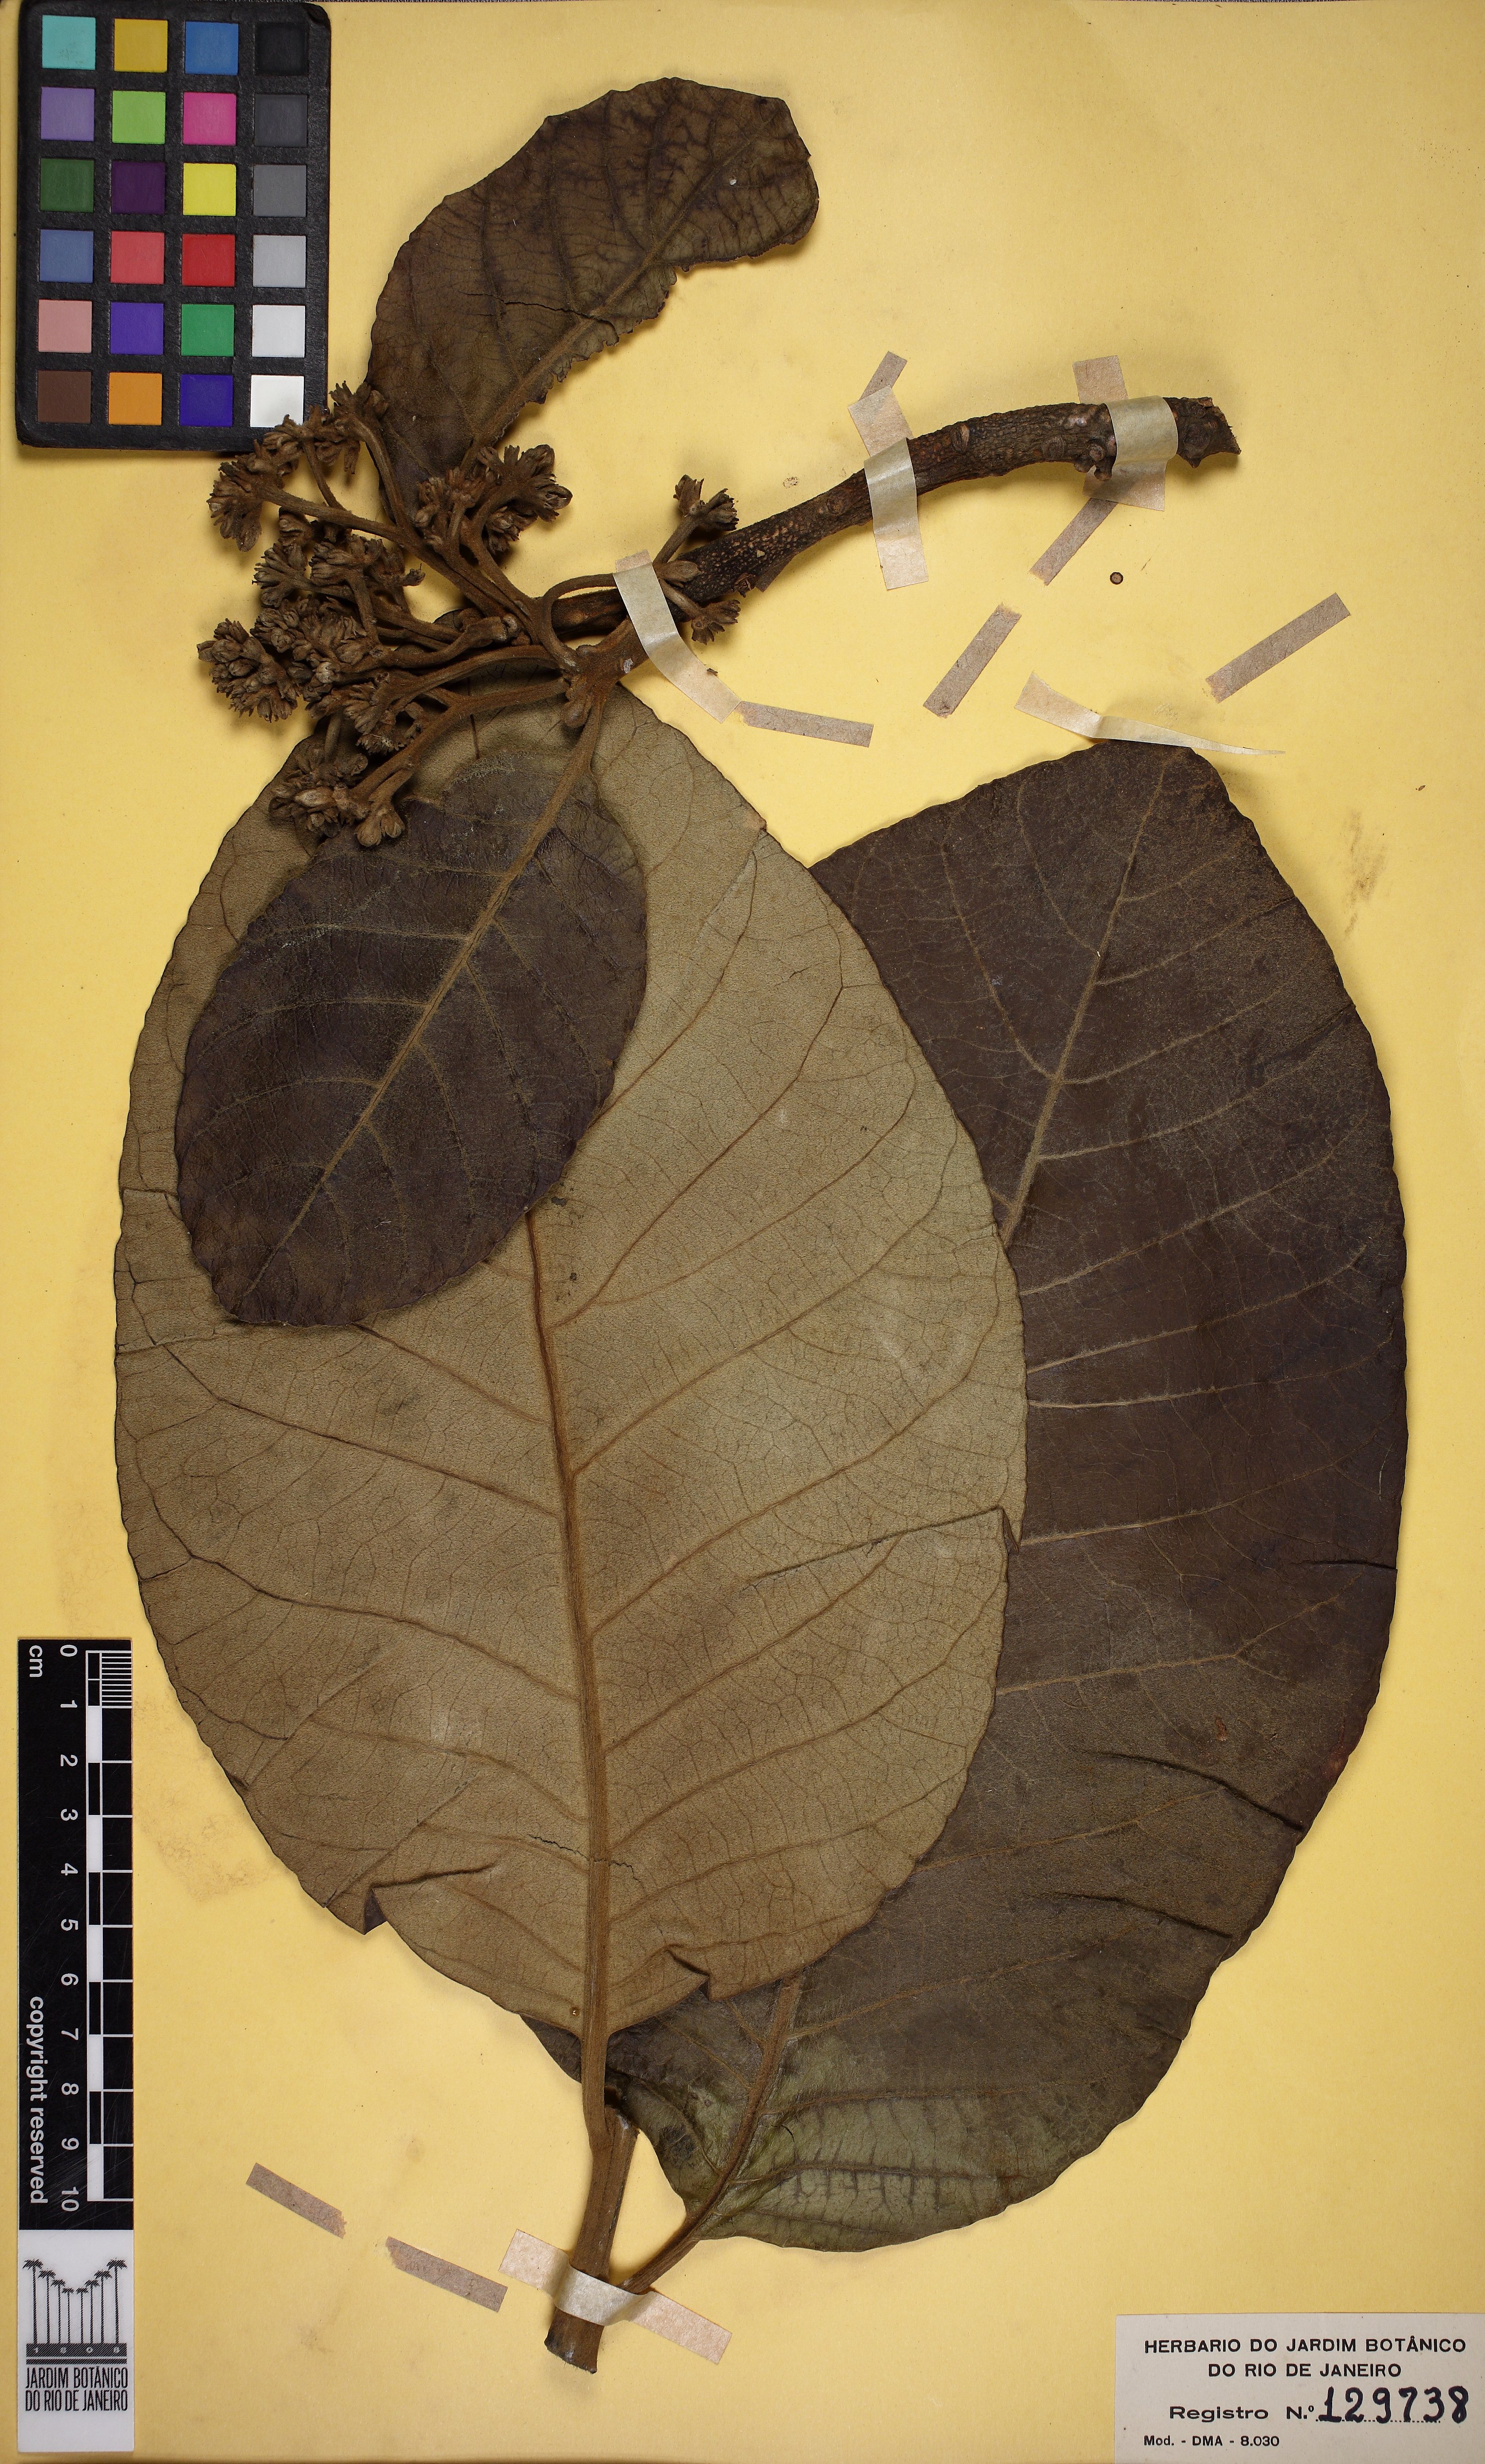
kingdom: Plantae
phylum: Tracheophyta
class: Magnoliopsida
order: Gentianales
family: Apocynaceae
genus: Aspidosperma
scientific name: Aspidosperma macrocarpon
